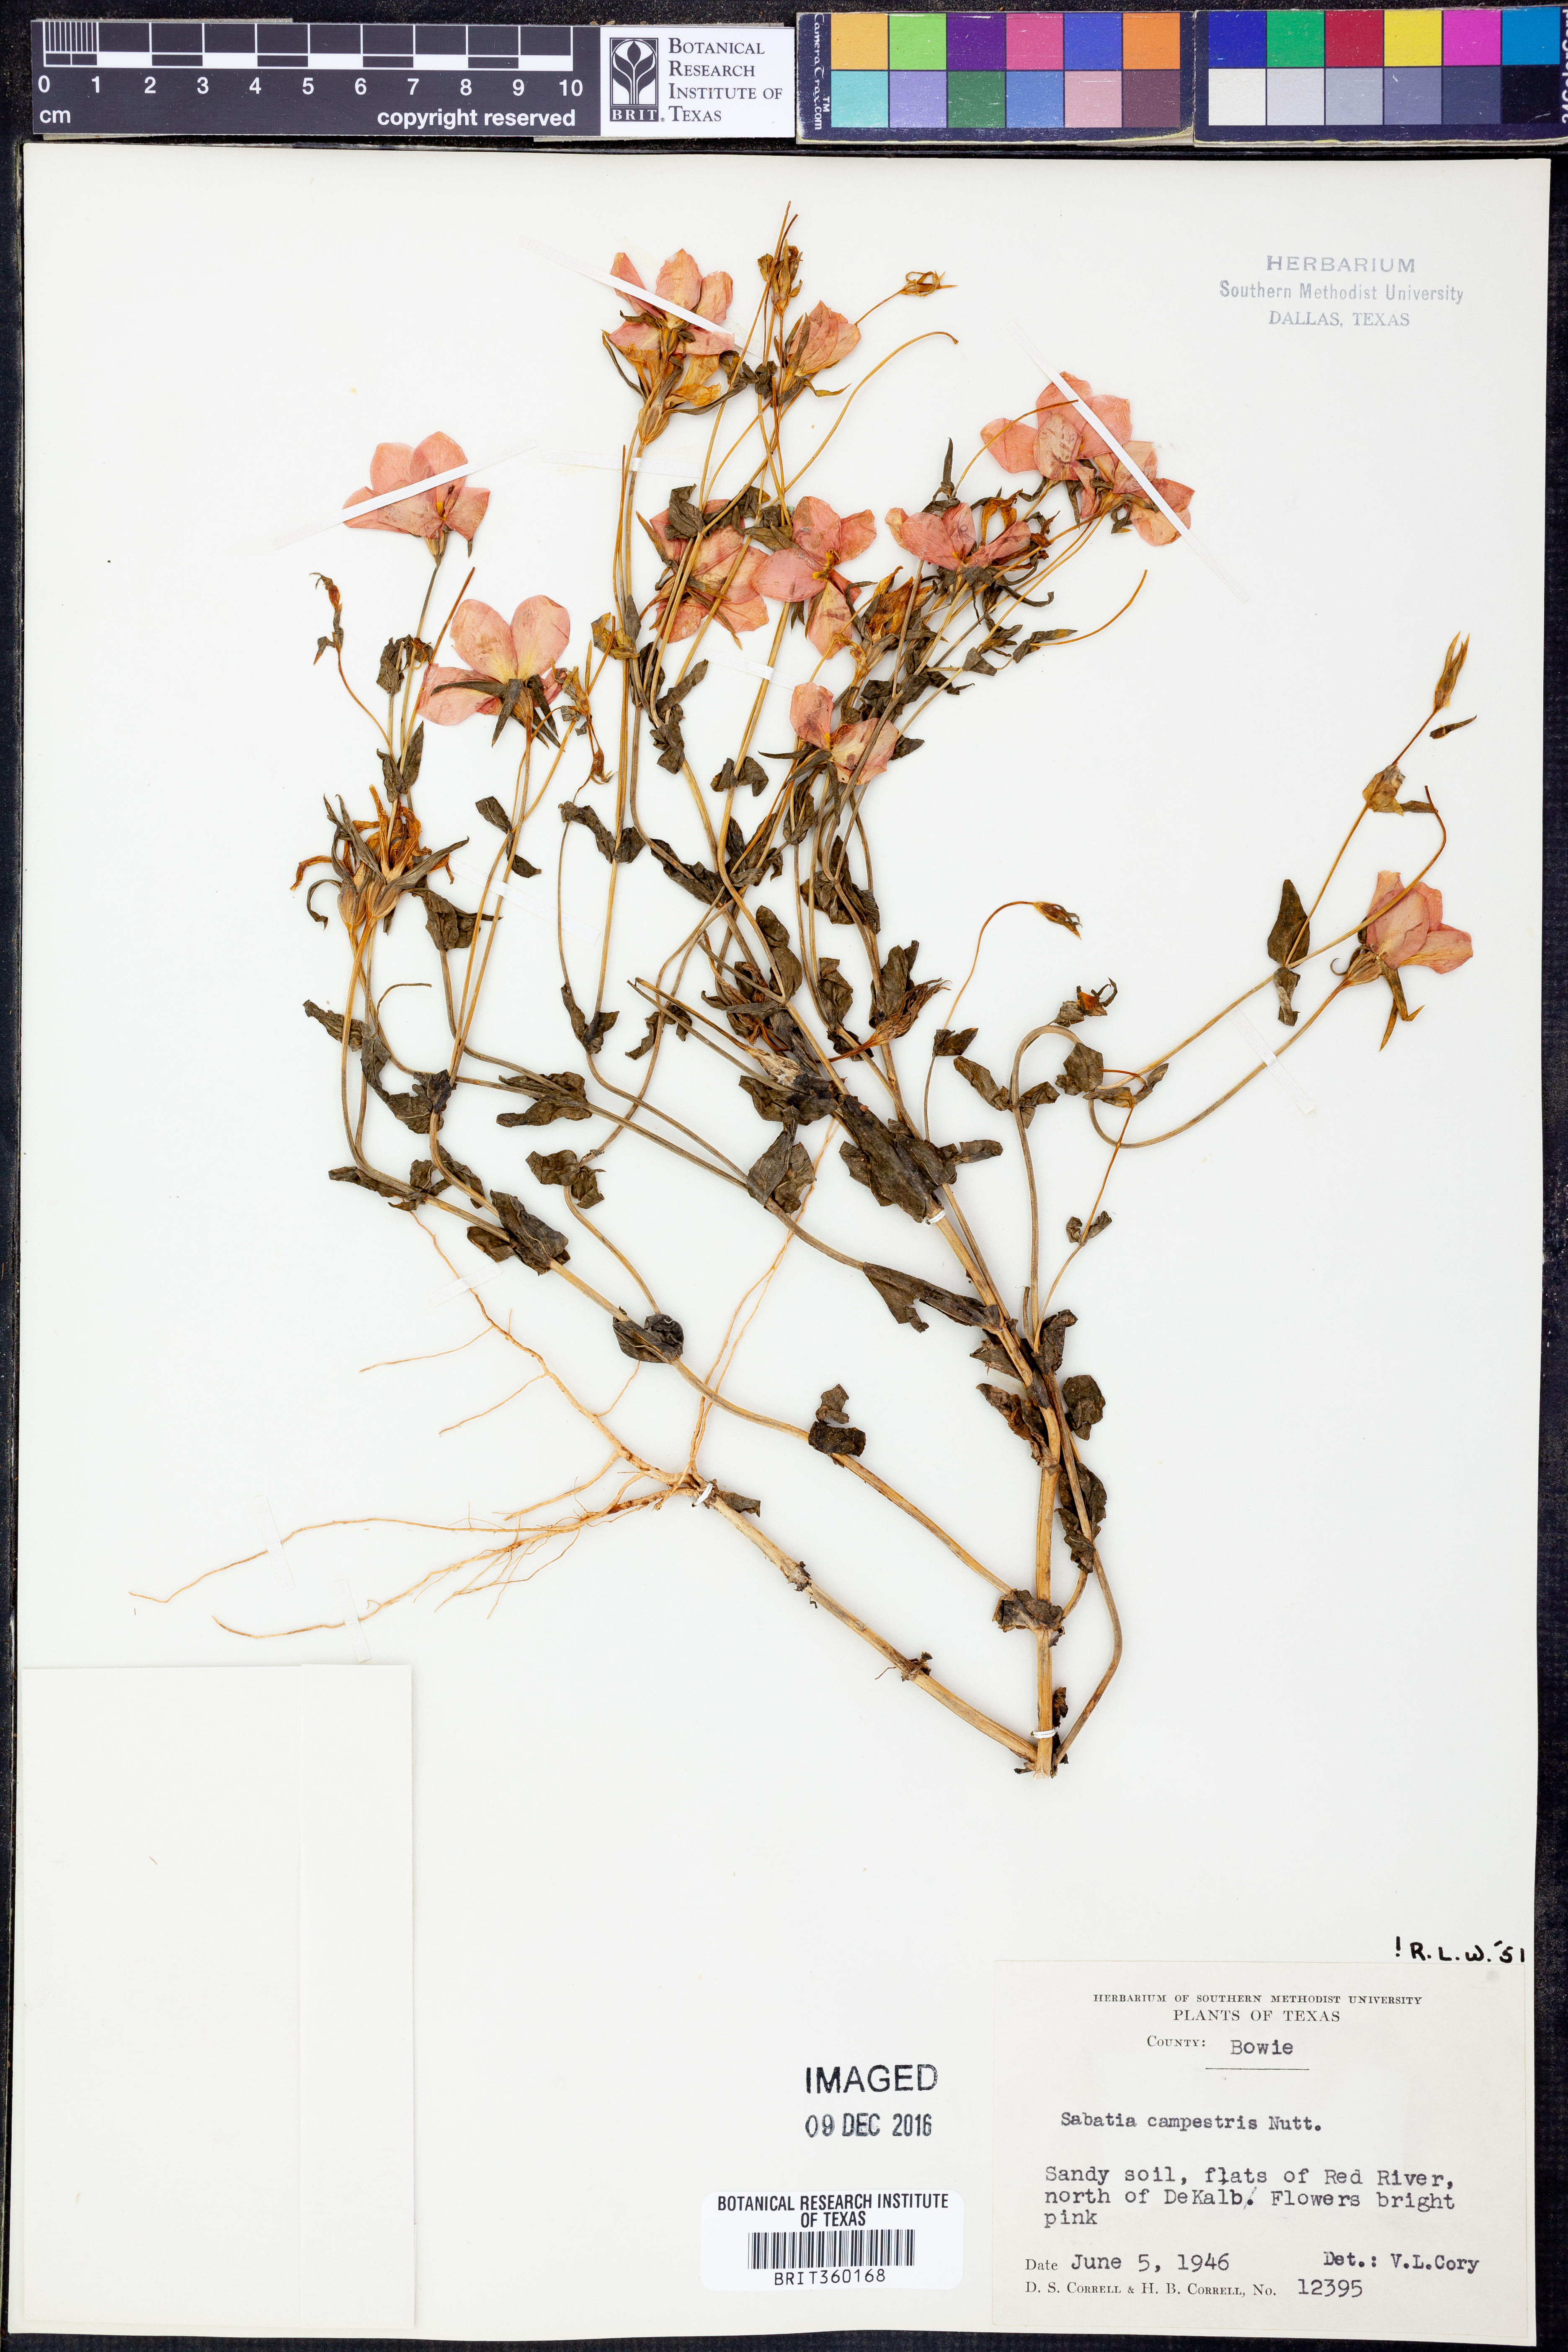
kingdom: Plantae
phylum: Tracheophyta
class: Magnoliopsida
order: Gentianales
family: Gentianaceae
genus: Sabatia
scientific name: Sabatia campestris
